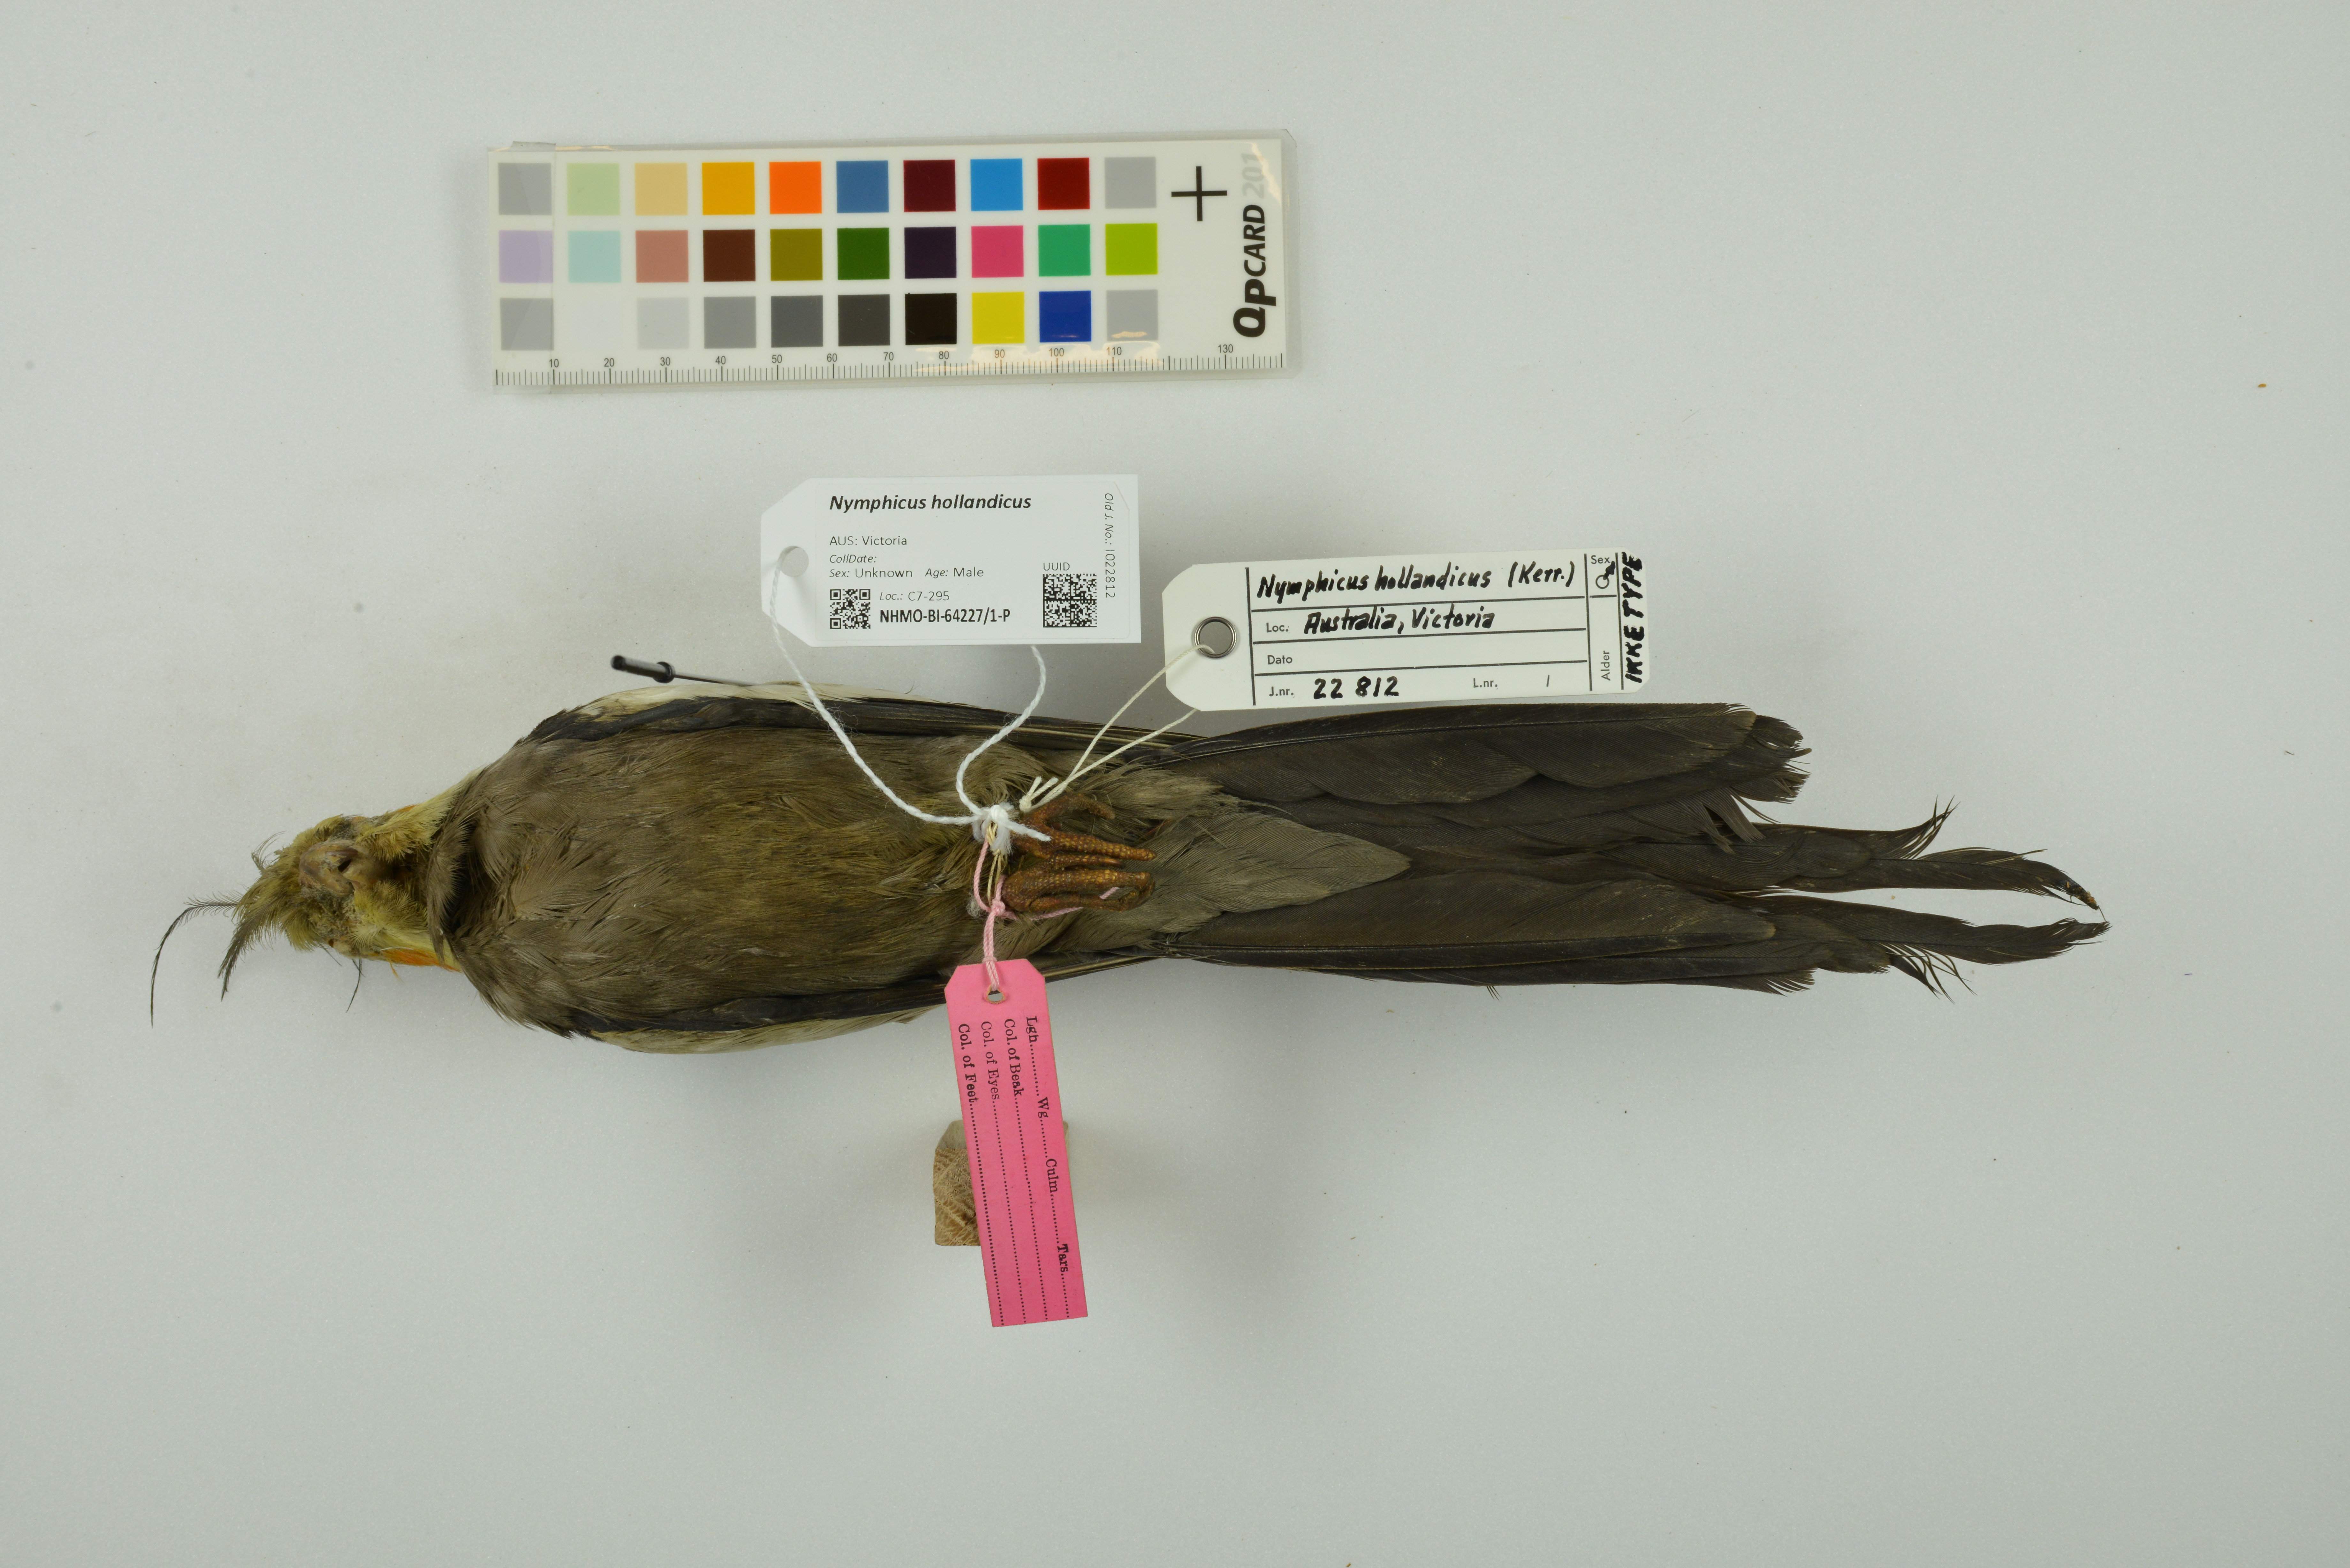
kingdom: Animalia
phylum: Chordata
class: Aves
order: Psittaciformes
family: Psittacidae
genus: Nymphicus
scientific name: Nymphicus hollandicus
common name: Cockatiel
